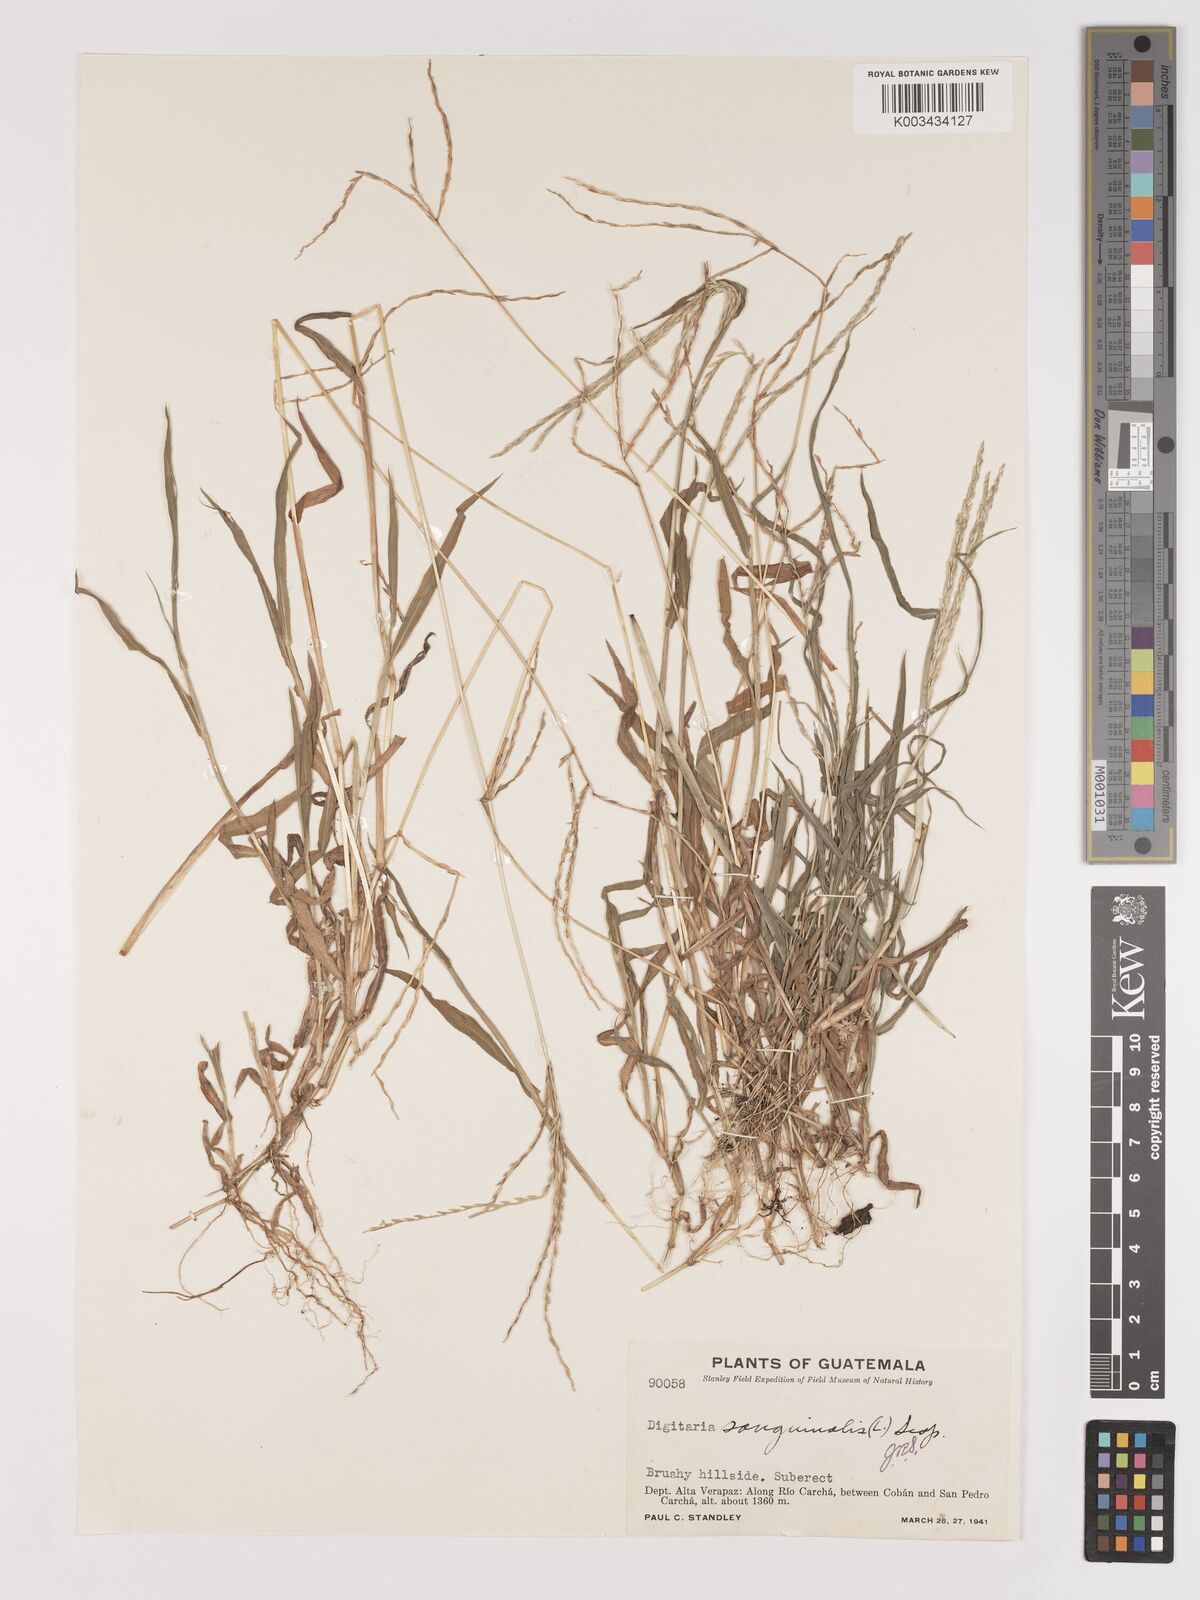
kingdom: Plantae
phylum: Tracheophyta
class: Liliopsida
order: Poales
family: Poaceae
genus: Digitaria
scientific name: Digitaria ciliaris
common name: Tropical finger-grass
